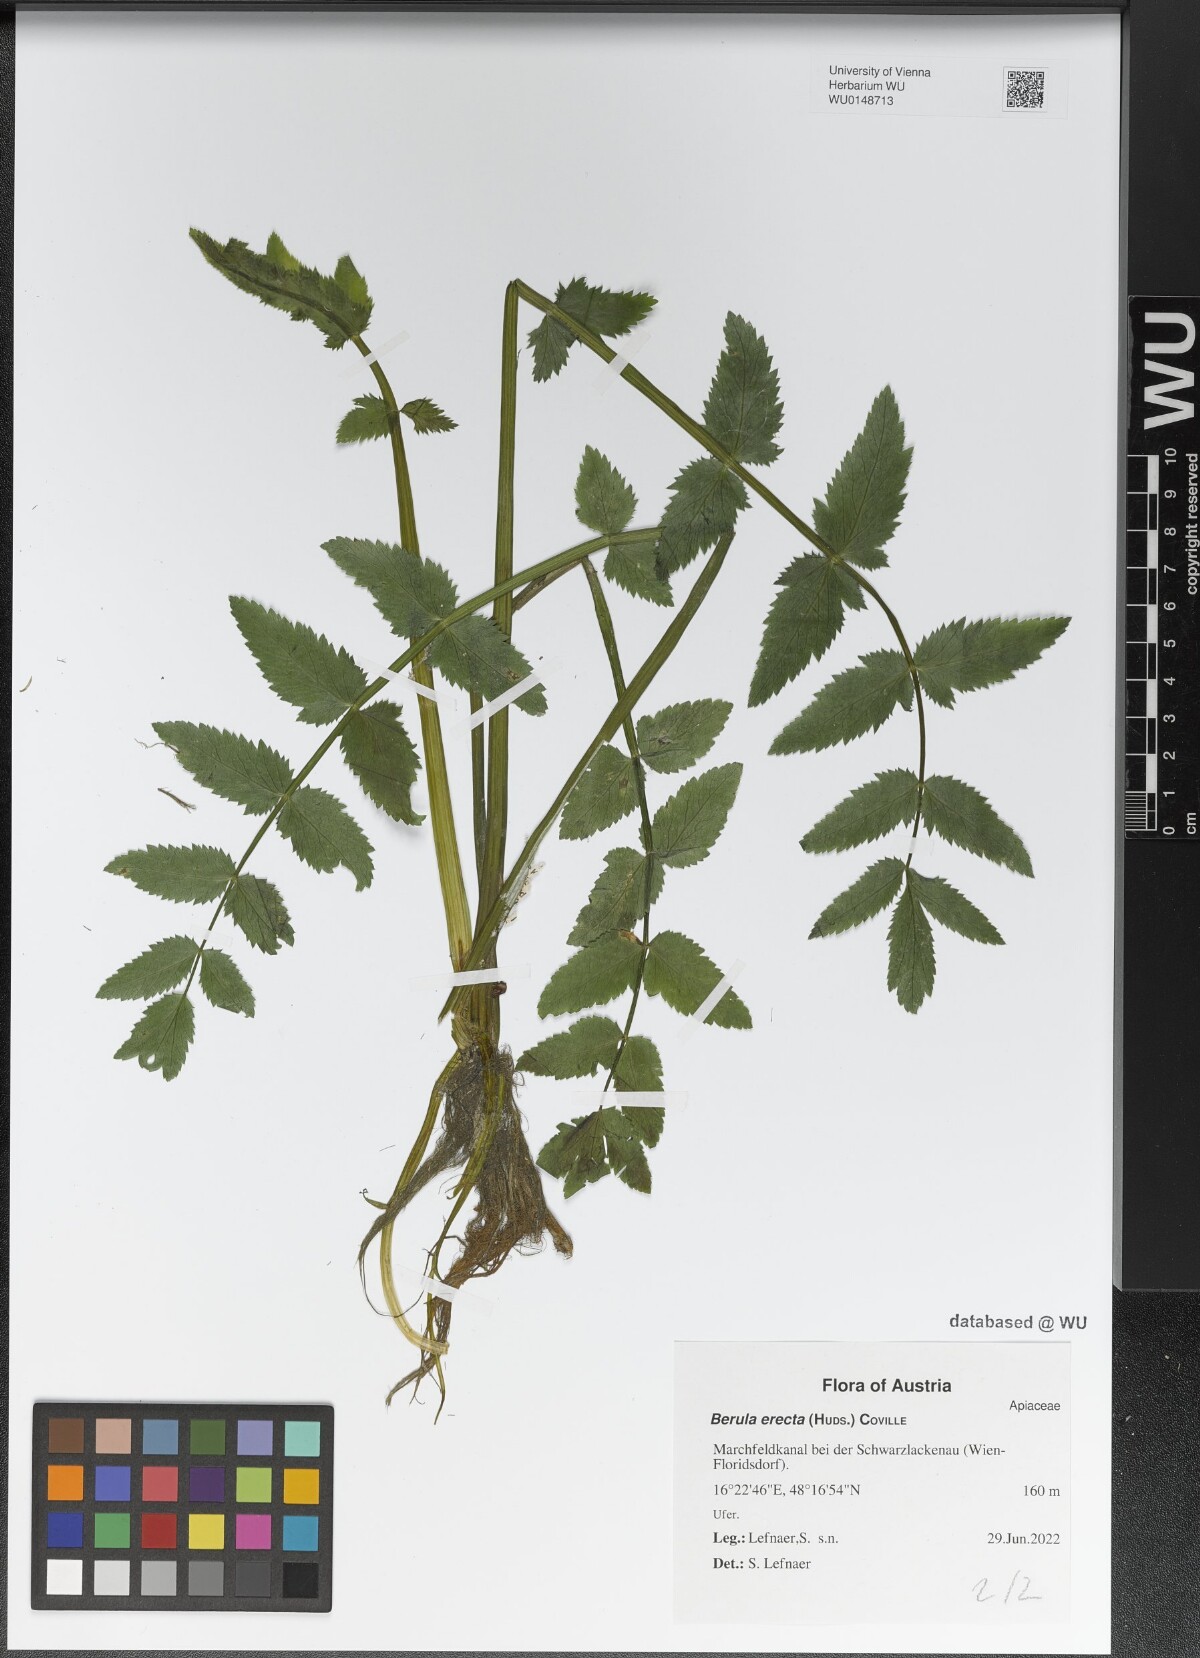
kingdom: Plantae
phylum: Tracheophyta
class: Magnoliopsida
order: Apiales
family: Apiaceae
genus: Berula
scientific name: Berula erecta
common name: Lesser water-parsnip
